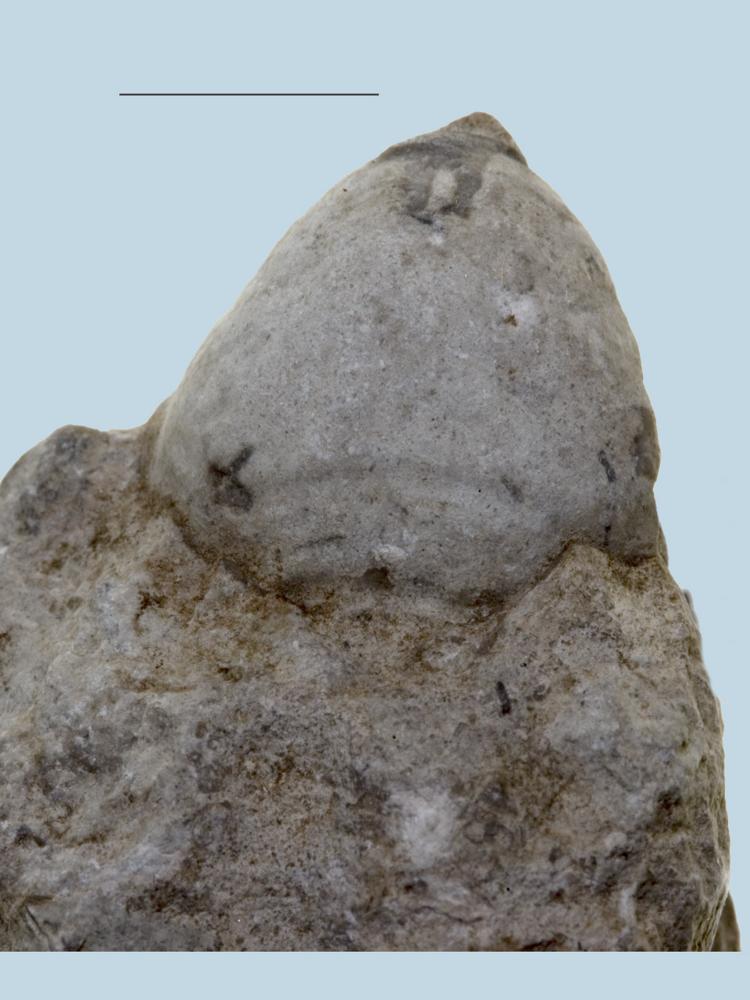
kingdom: Animalia
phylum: Brachiopoda
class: Rhynchonellata
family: Porambonitidae
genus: Porambonites
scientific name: Porambonites baueri
